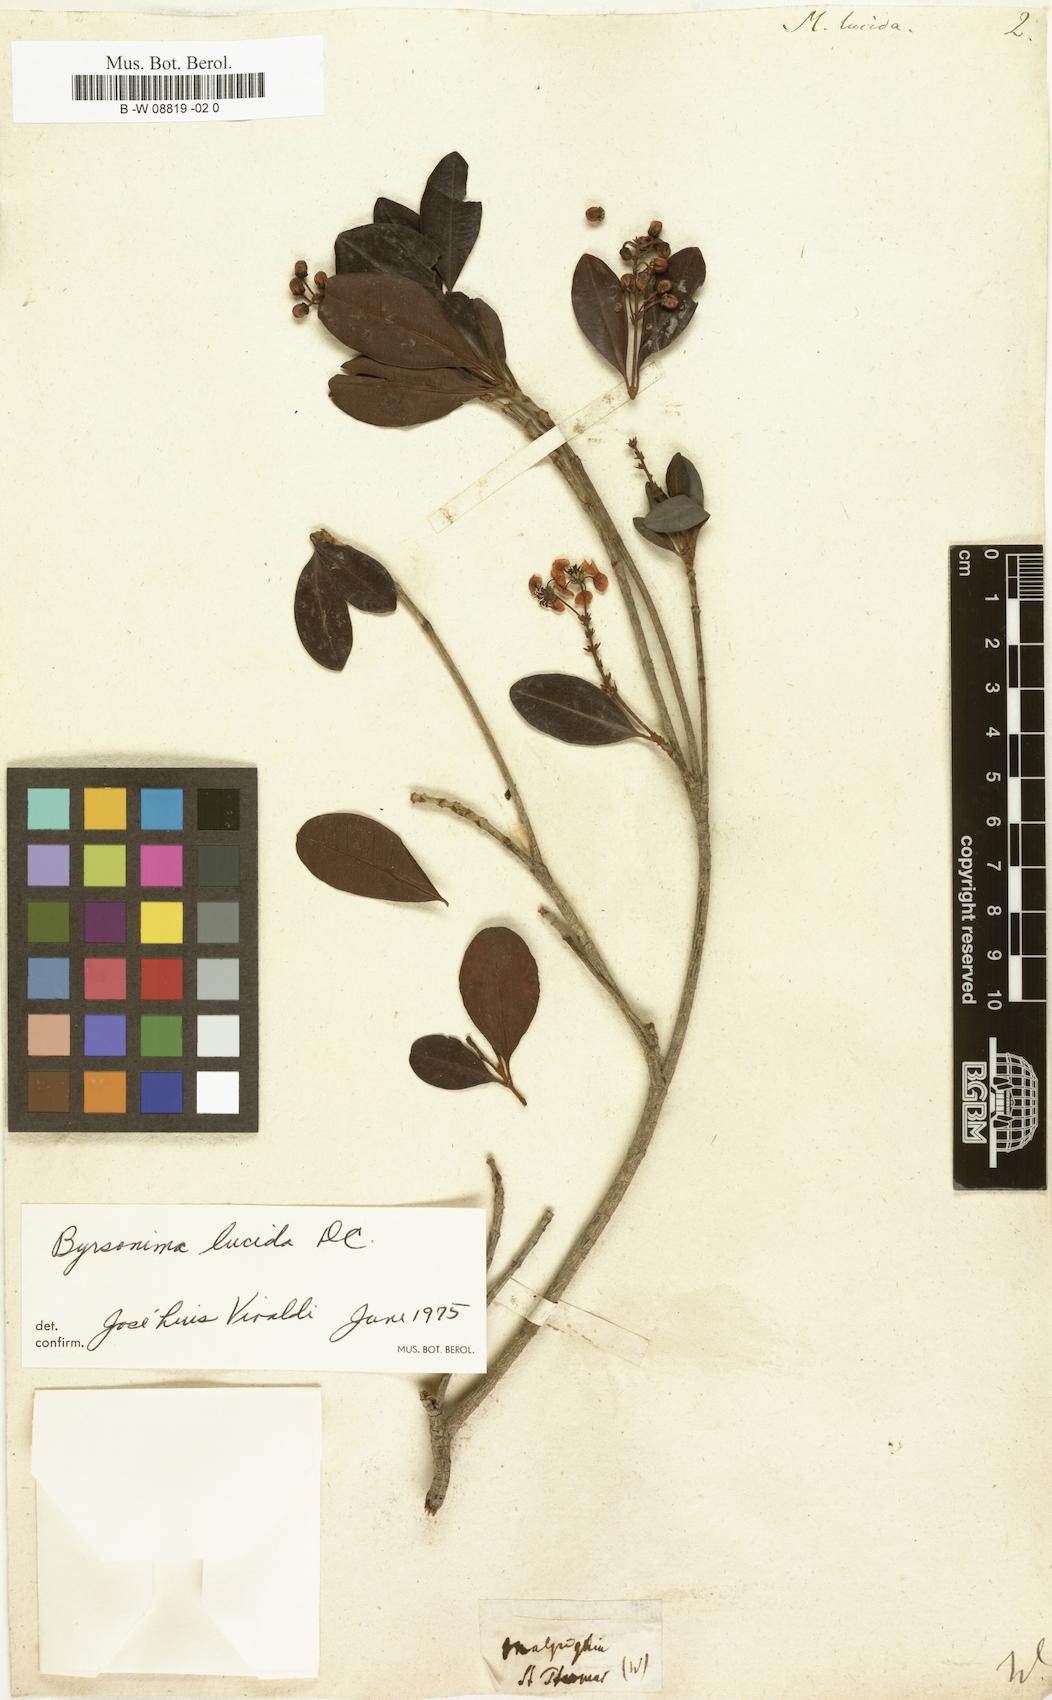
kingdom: Plantae
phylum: Tracheophyta
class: Magnoliopsida
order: Malpighiales
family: Malpighiaceae
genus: Byrsonima
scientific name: Byrsonima lucida
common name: Clam-cherry
